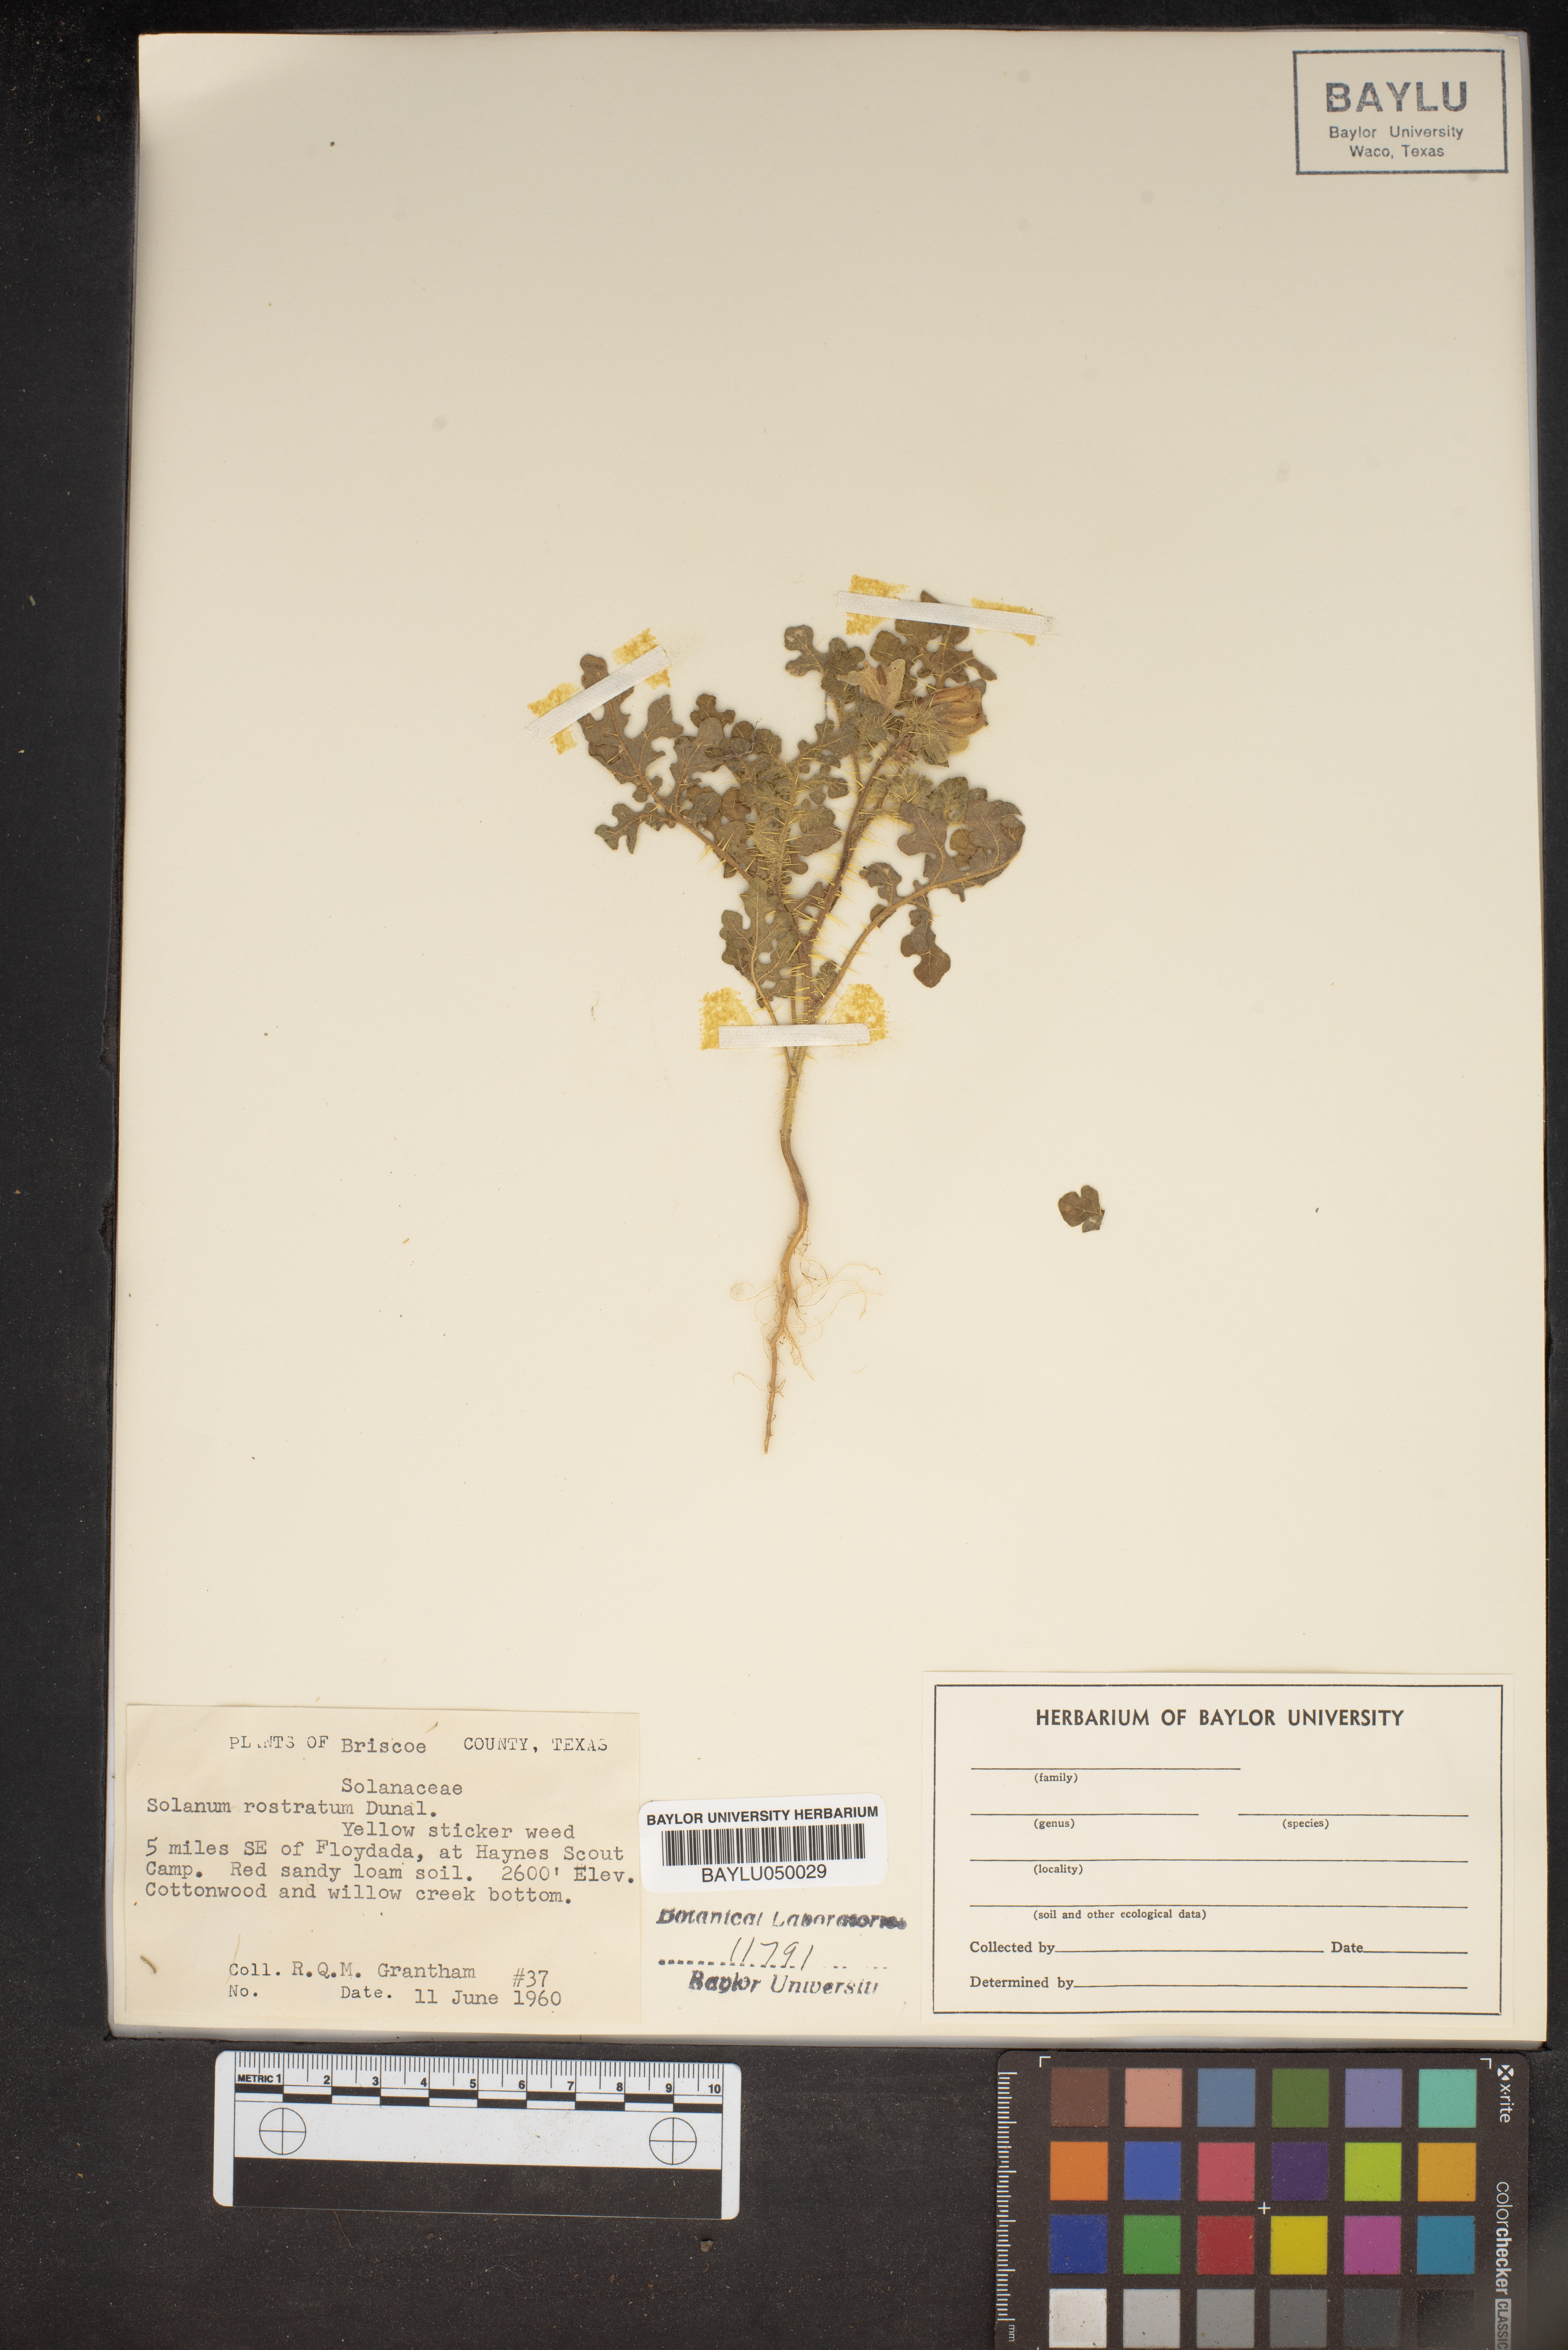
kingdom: Plantae
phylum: Tracheophyta
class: Magnoliopsida
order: Solanales
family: Solanaceae
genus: Solanum
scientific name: Solanum angustifolium
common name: Buffalobur nightshade
